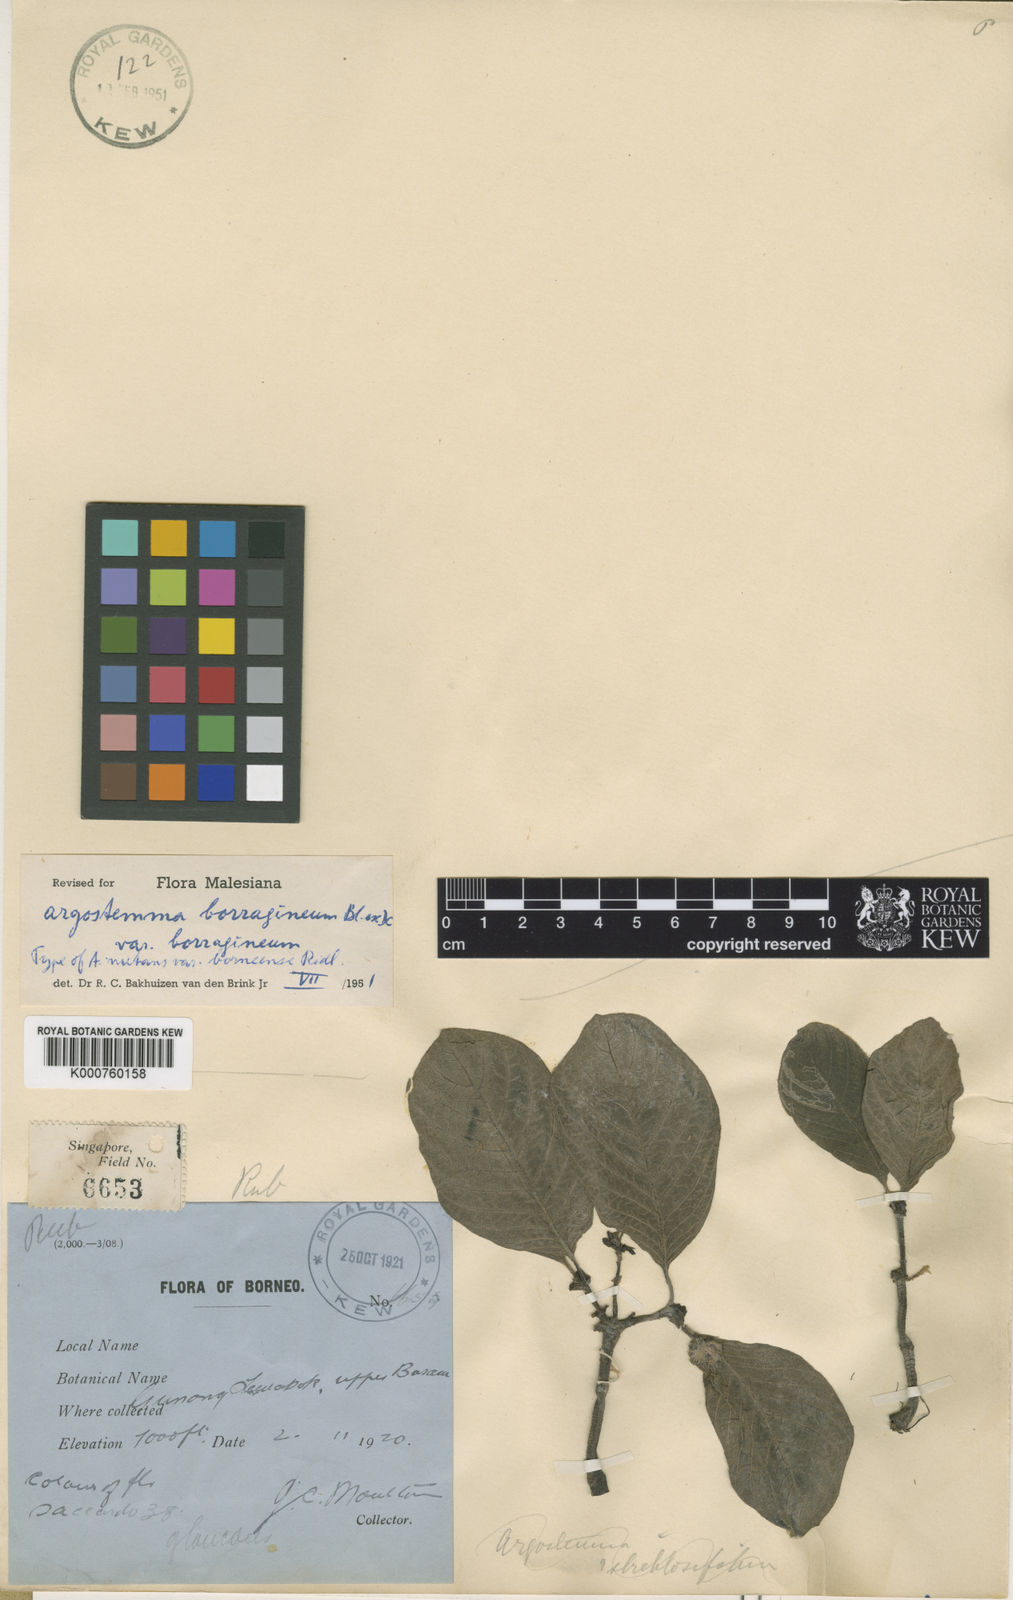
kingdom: Plantae
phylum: Tracheophyta
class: Magnoliopsida
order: Gentianales
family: Rubiaceae
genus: Argostemma
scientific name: Argostemma borragineum
